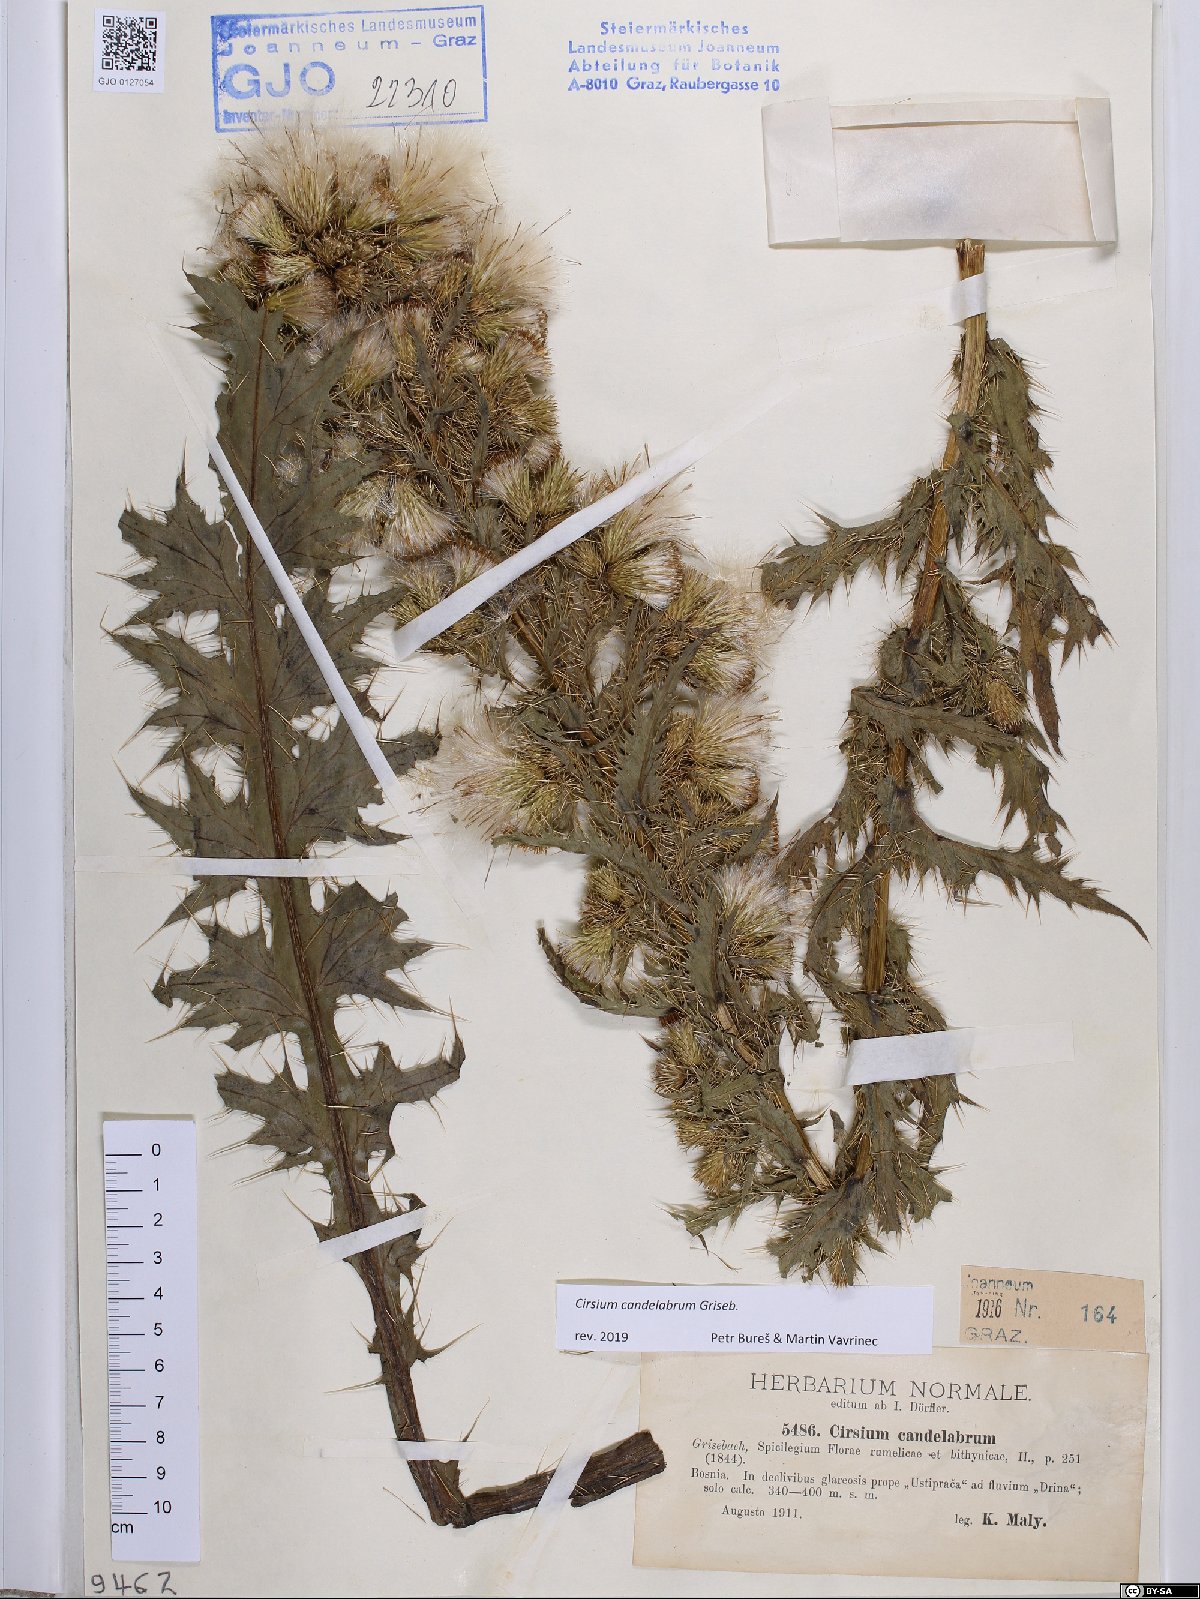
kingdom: Plantae
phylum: Tracheophyta
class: Magnoliopsida
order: Asterales
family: Asteraceae
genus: Cirsium
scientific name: Cirsium candelabrum
